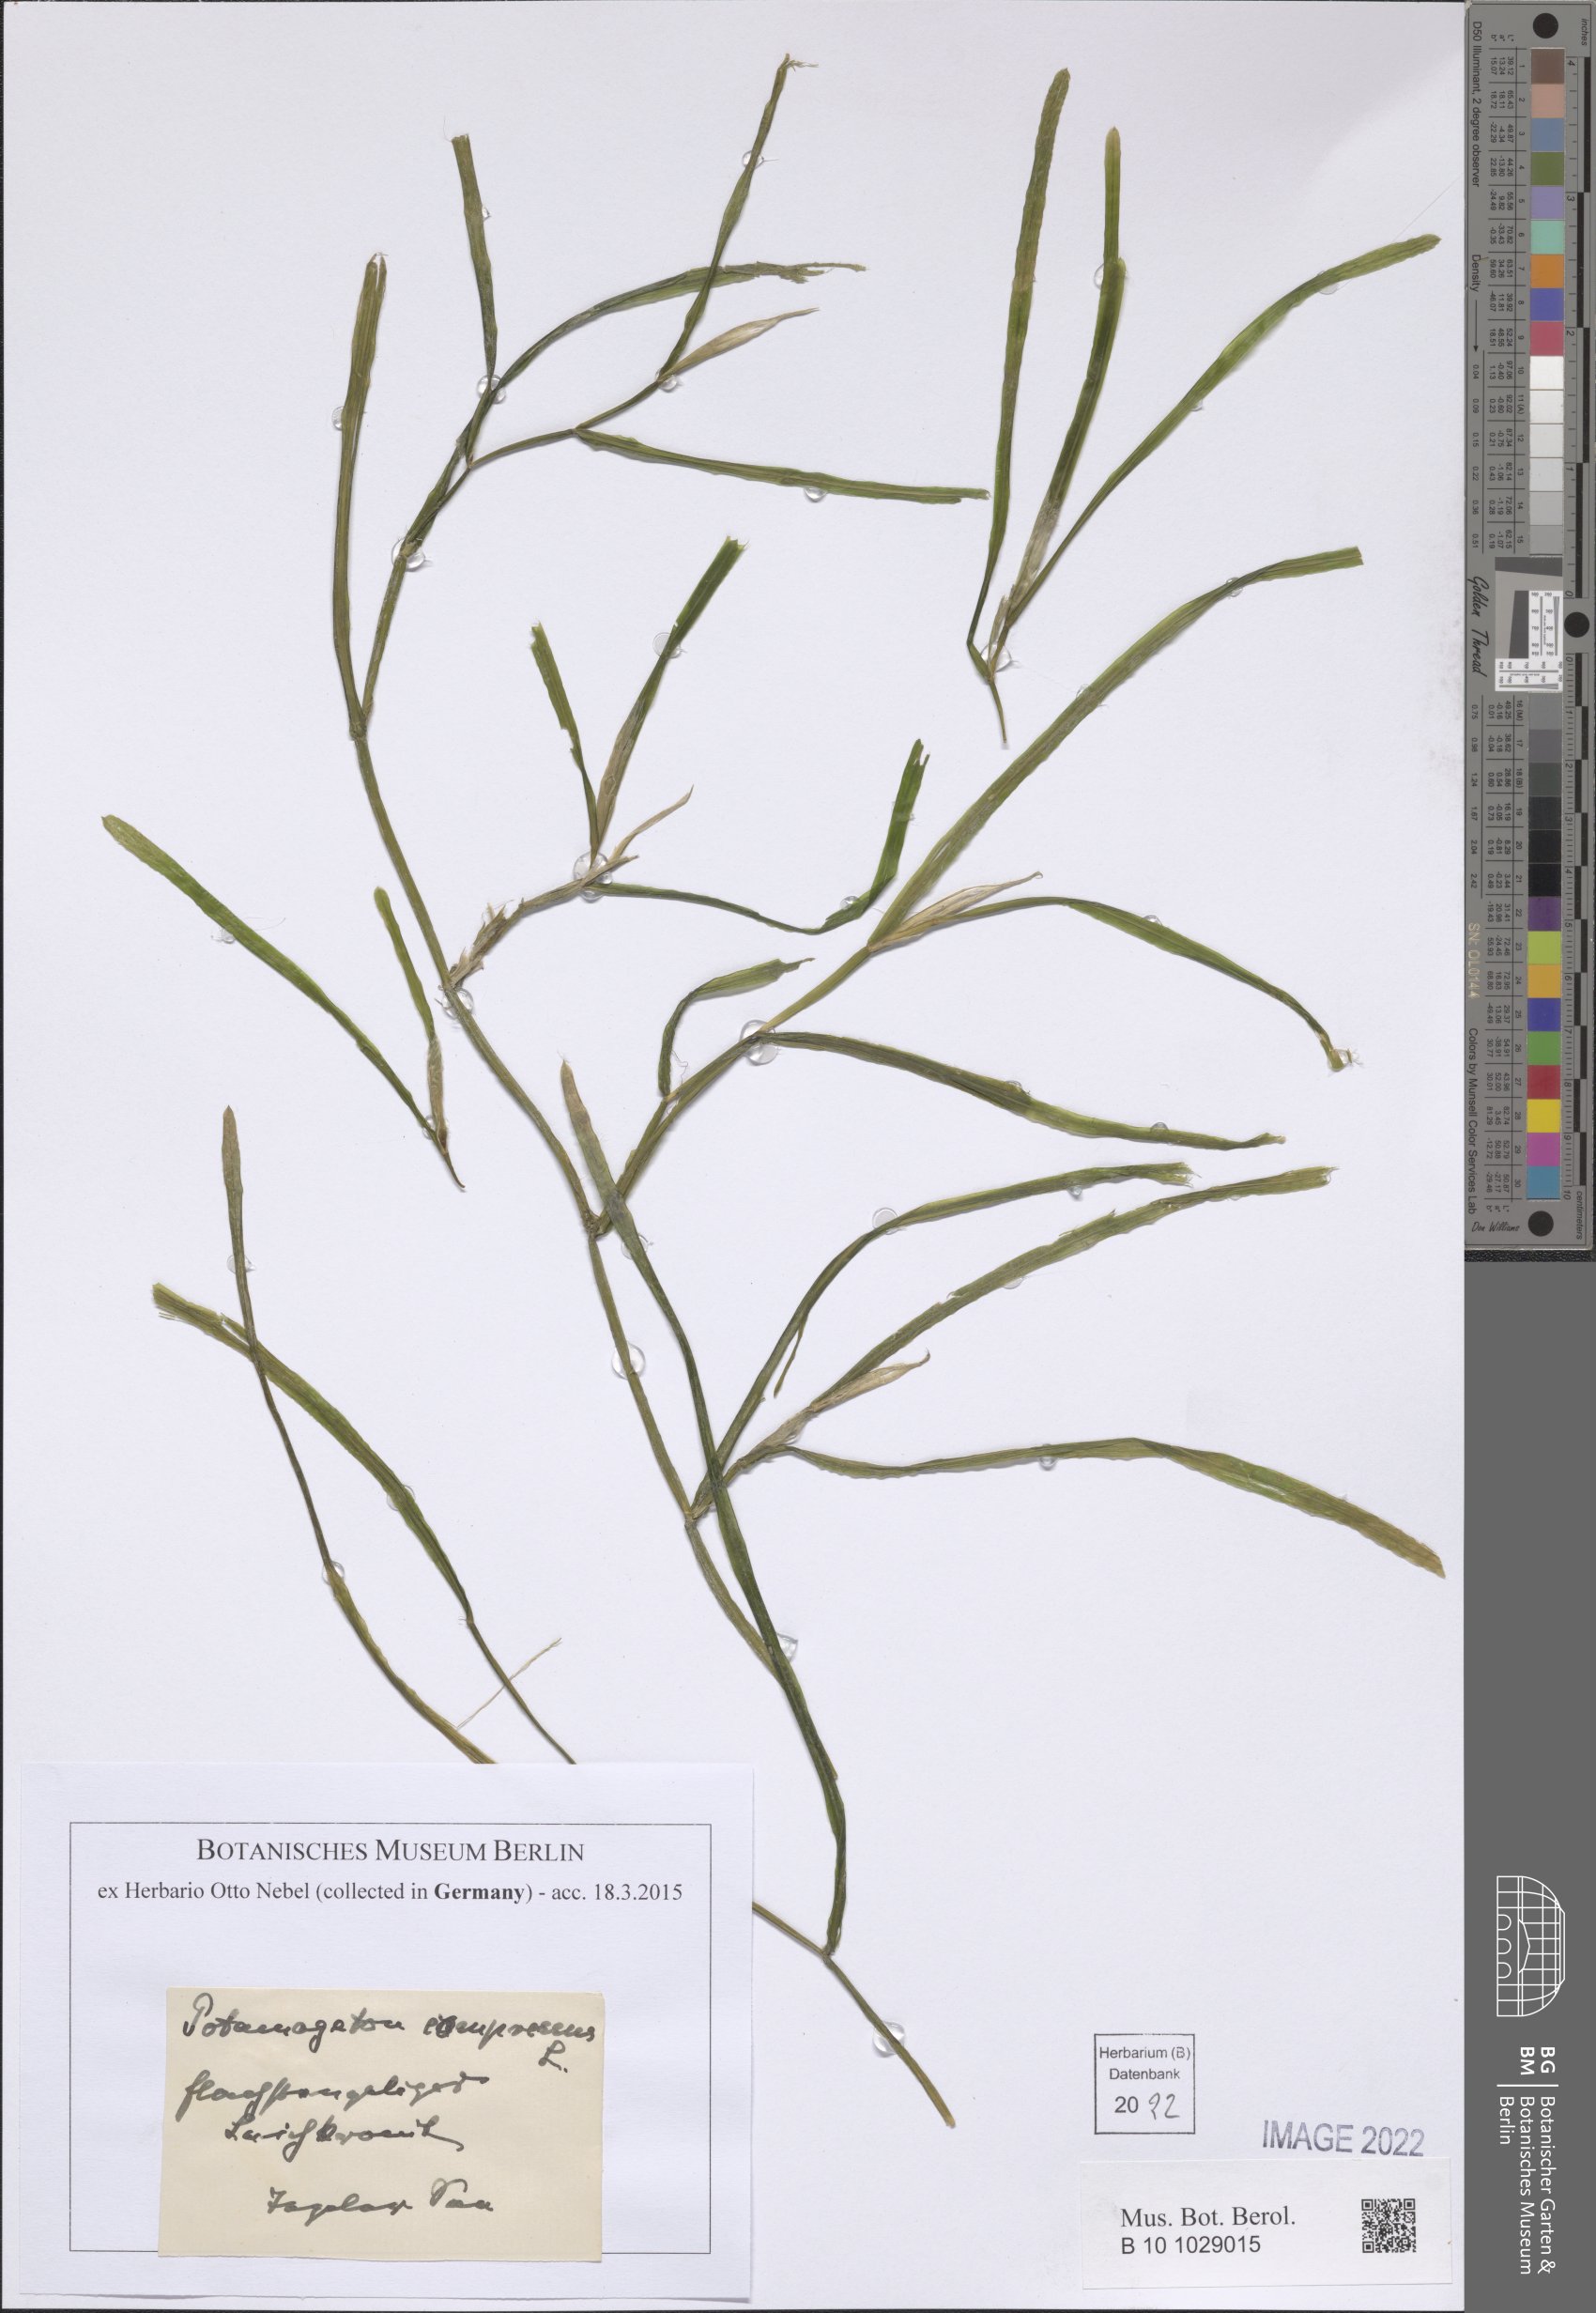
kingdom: Plantae
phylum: Tracheophyta
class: Liliopsida
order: Alismatales
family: Potamogetonaceae
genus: Potamogeton
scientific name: Potamogeton compressus
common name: Grass-wrack pondweed
